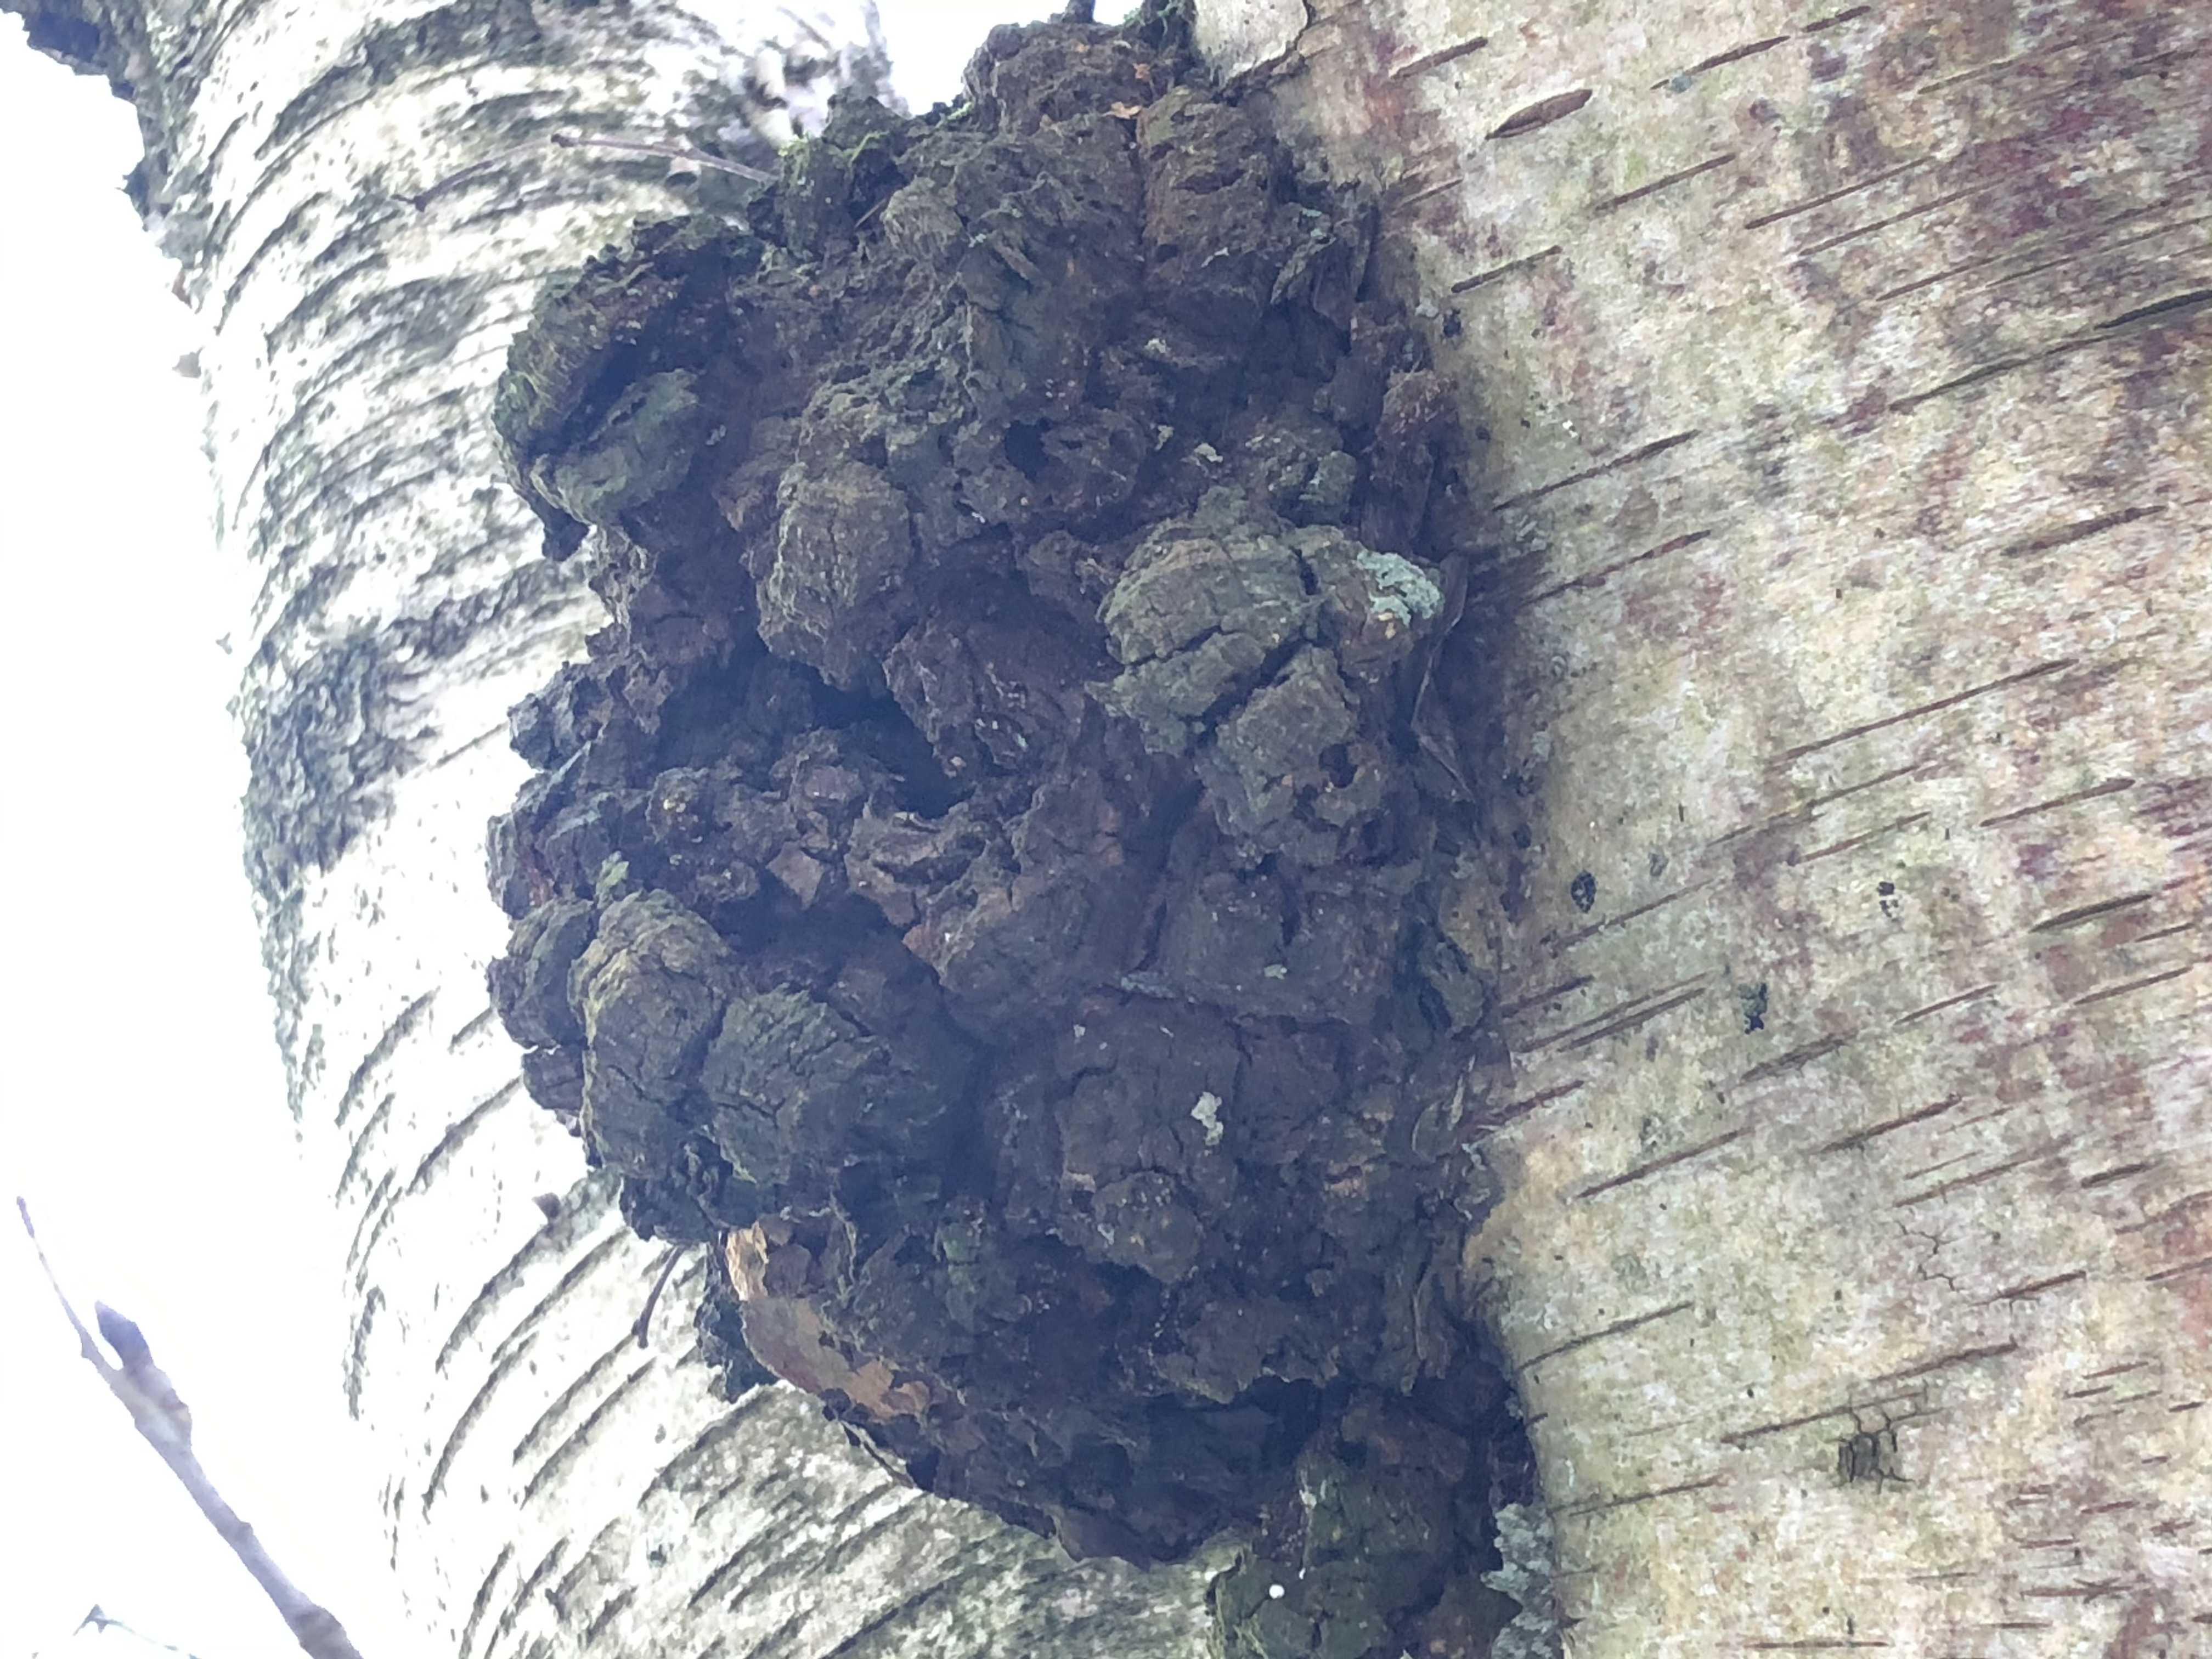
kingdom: Fungi
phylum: Basidiomycota
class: Agaricomycetes
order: Hymenochaetales
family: Hymenochaetaceae
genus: Inonotus
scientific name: Inonotus obliquus
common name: birke-spejlporesvamp
